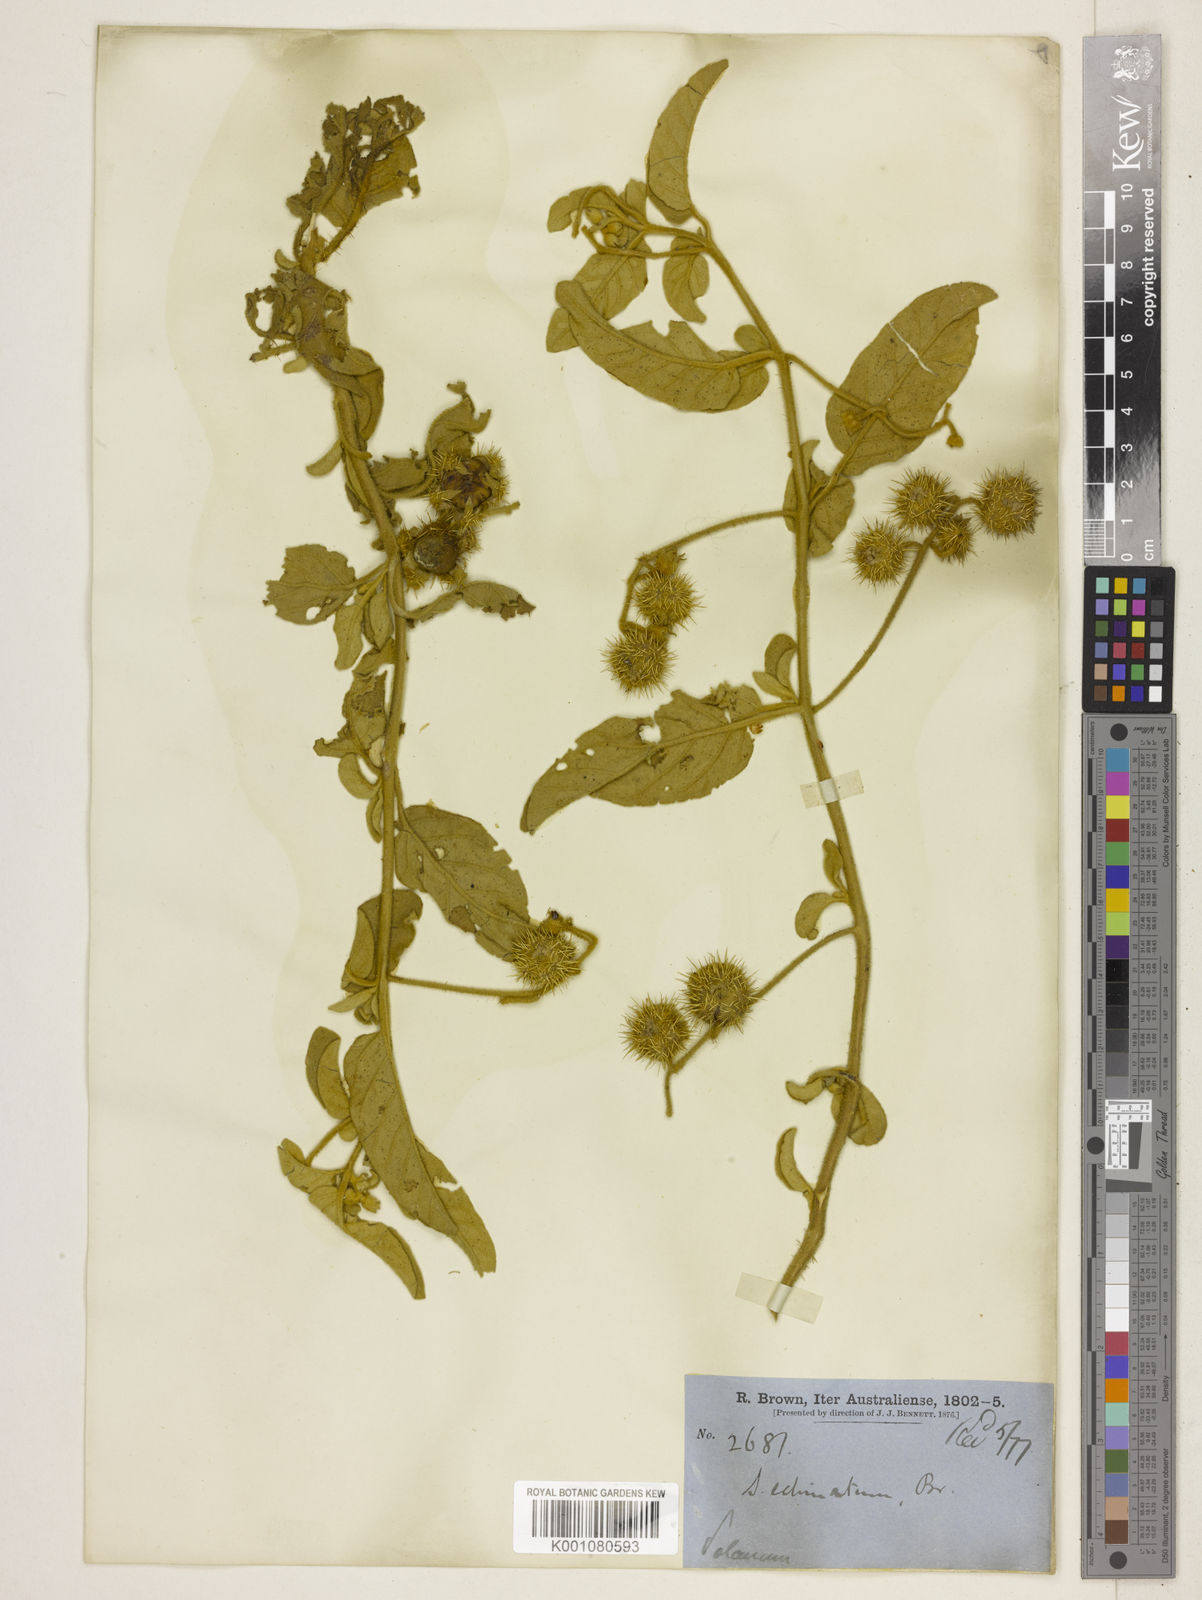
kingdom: Plantae
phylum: Tracheophyta
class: Magnoliopsida
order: Solanales
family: Solanaceae
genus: Solanum
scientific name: Solanum echinatum
